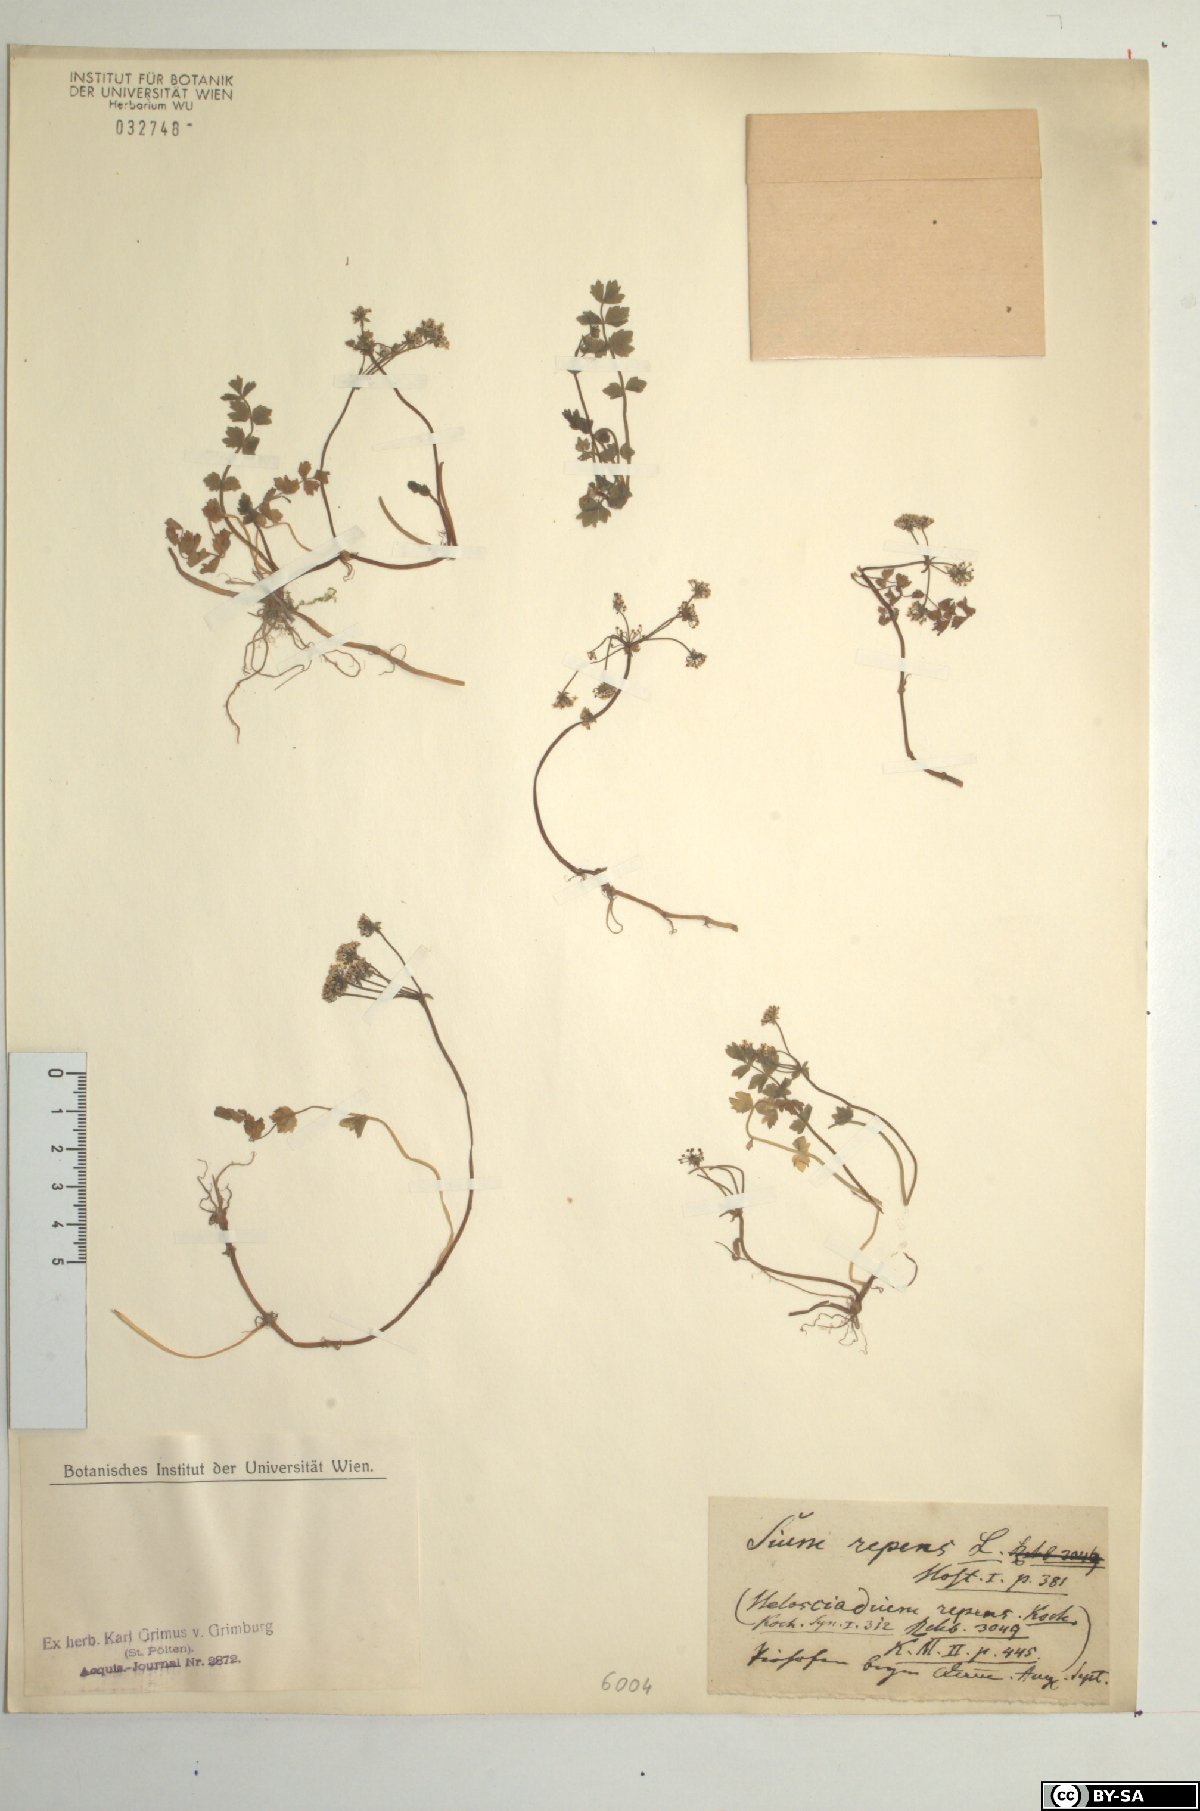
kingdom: Plantae
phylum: Tracheophyta
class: Magnoliopsida
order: Apiales
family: Apiaceae
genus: Helosciadium
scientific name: Helosciadium repens
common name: Creeping marshwort
